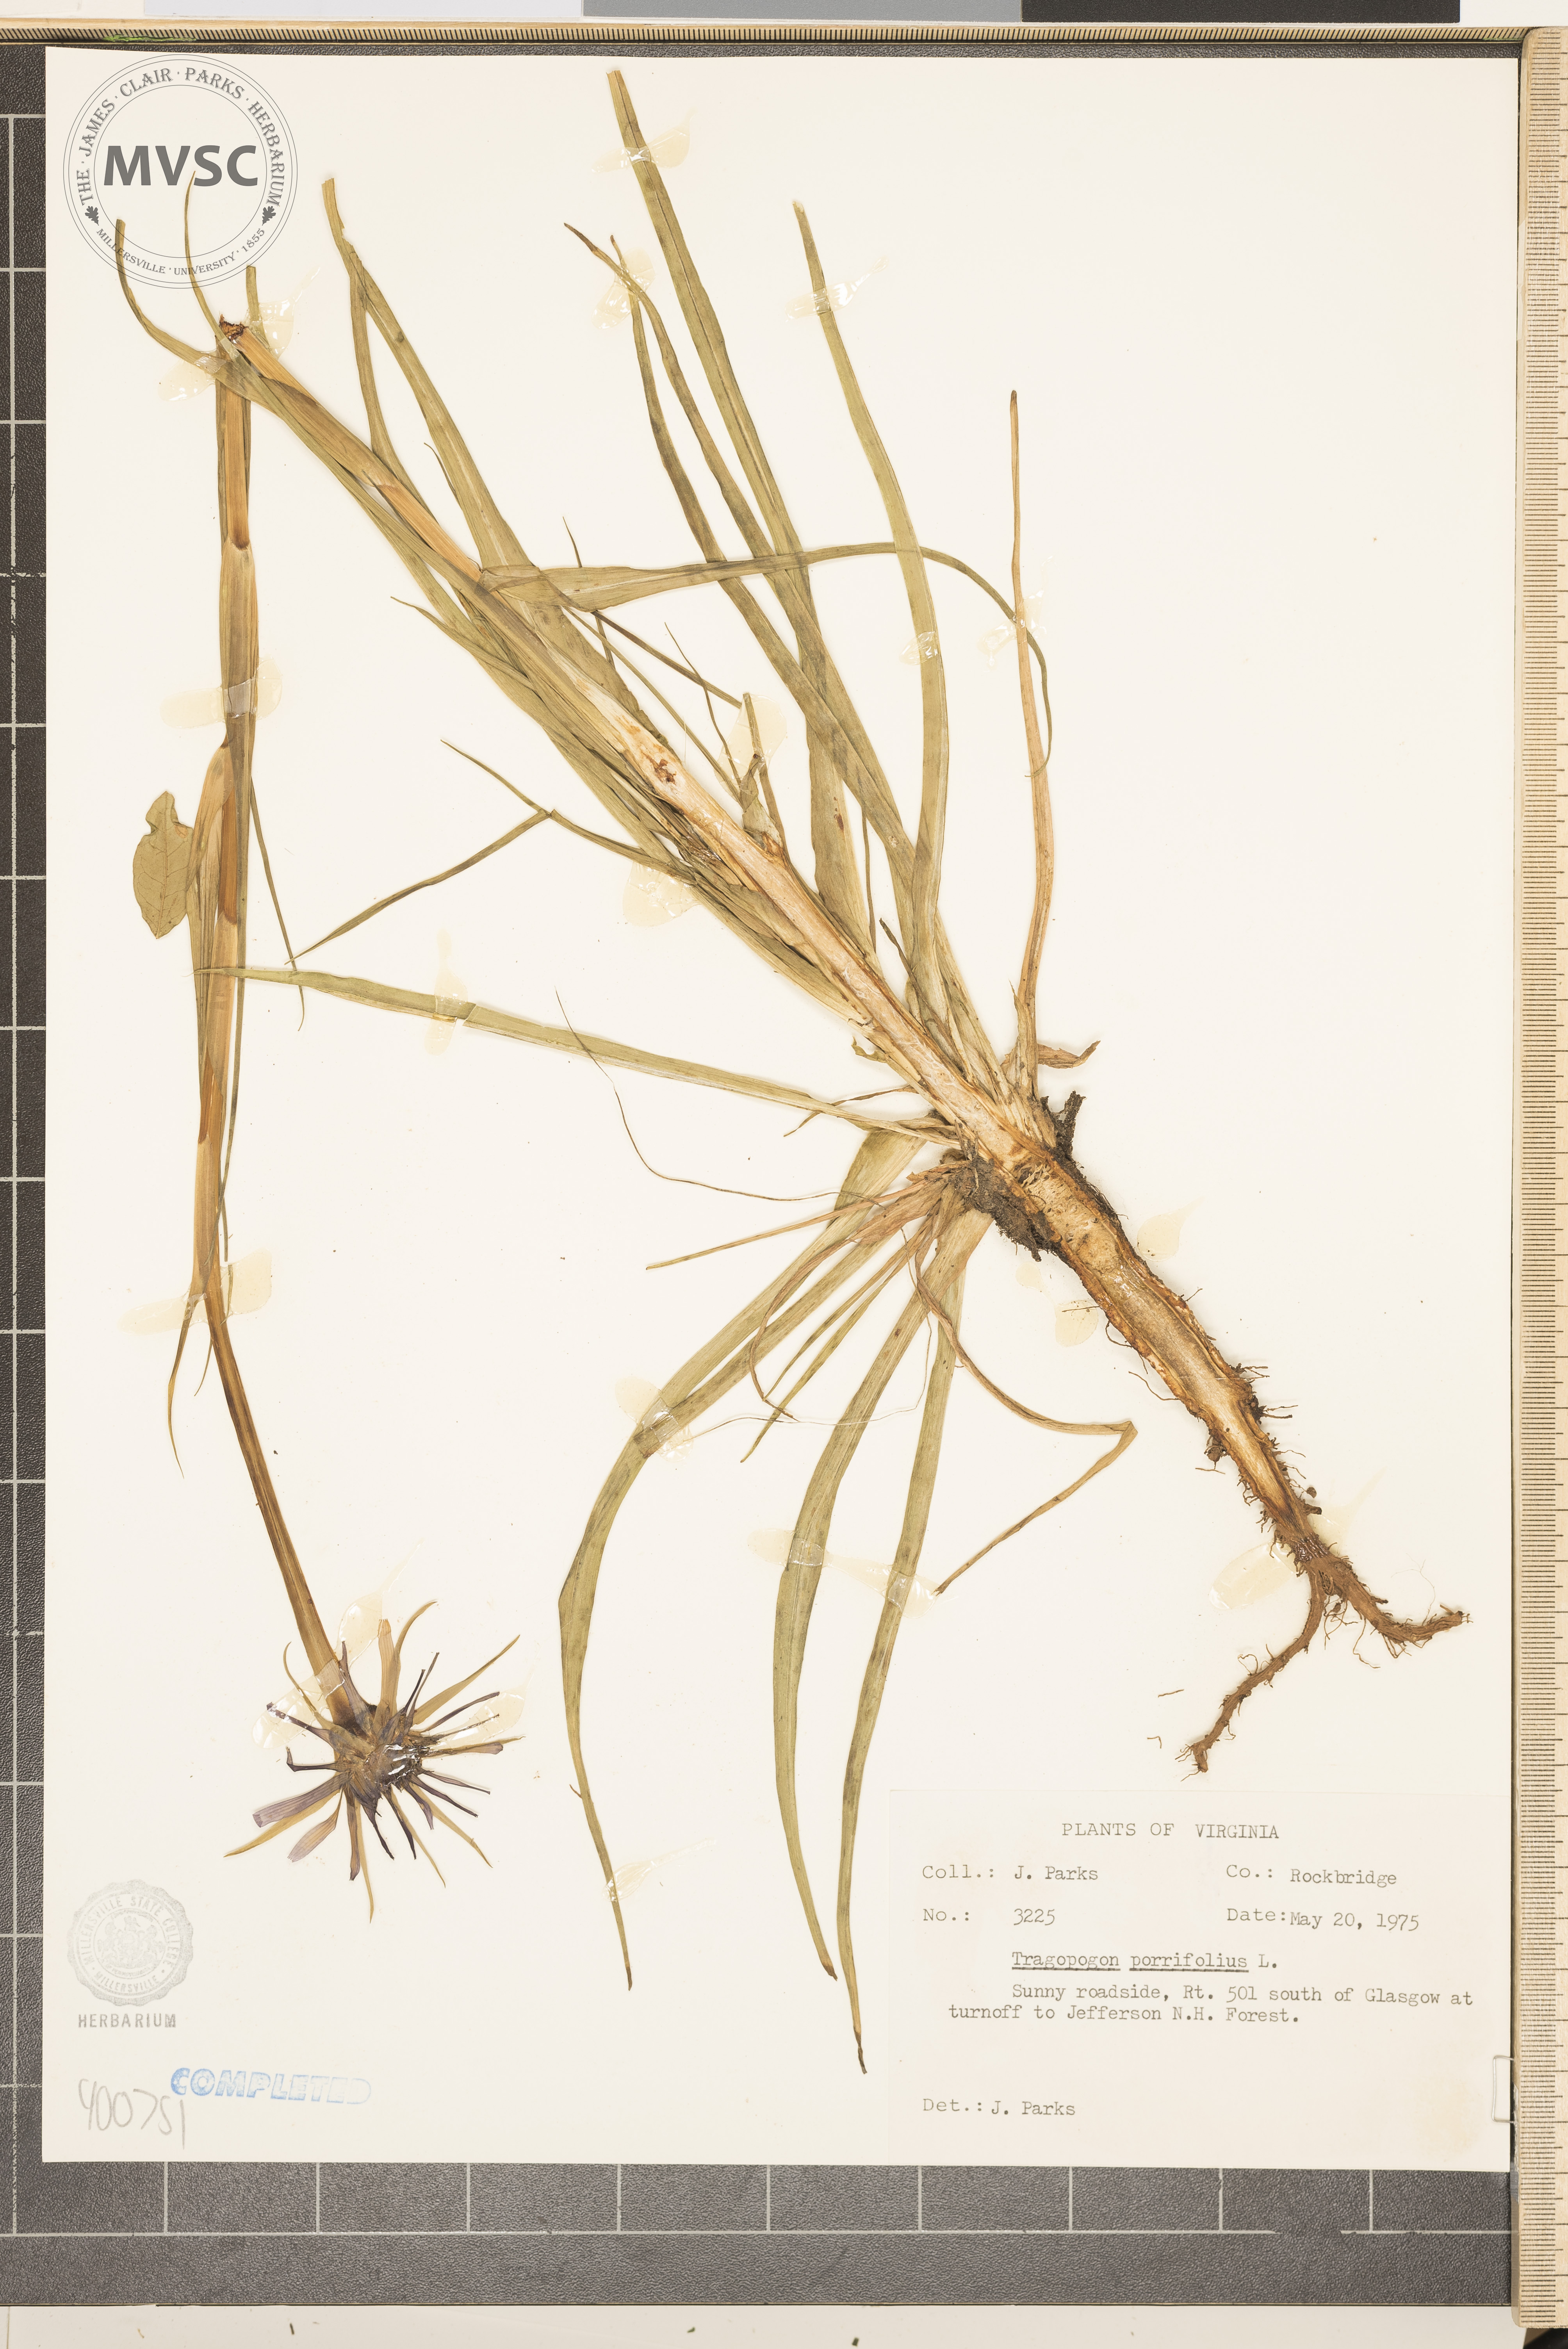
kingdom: Plantae
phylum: Tracheophyta
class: Magnoliopsida
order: Asterales
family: Asteraceae
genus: Tragopogon
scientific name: Tragopogon porrifolius
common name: Salsify
